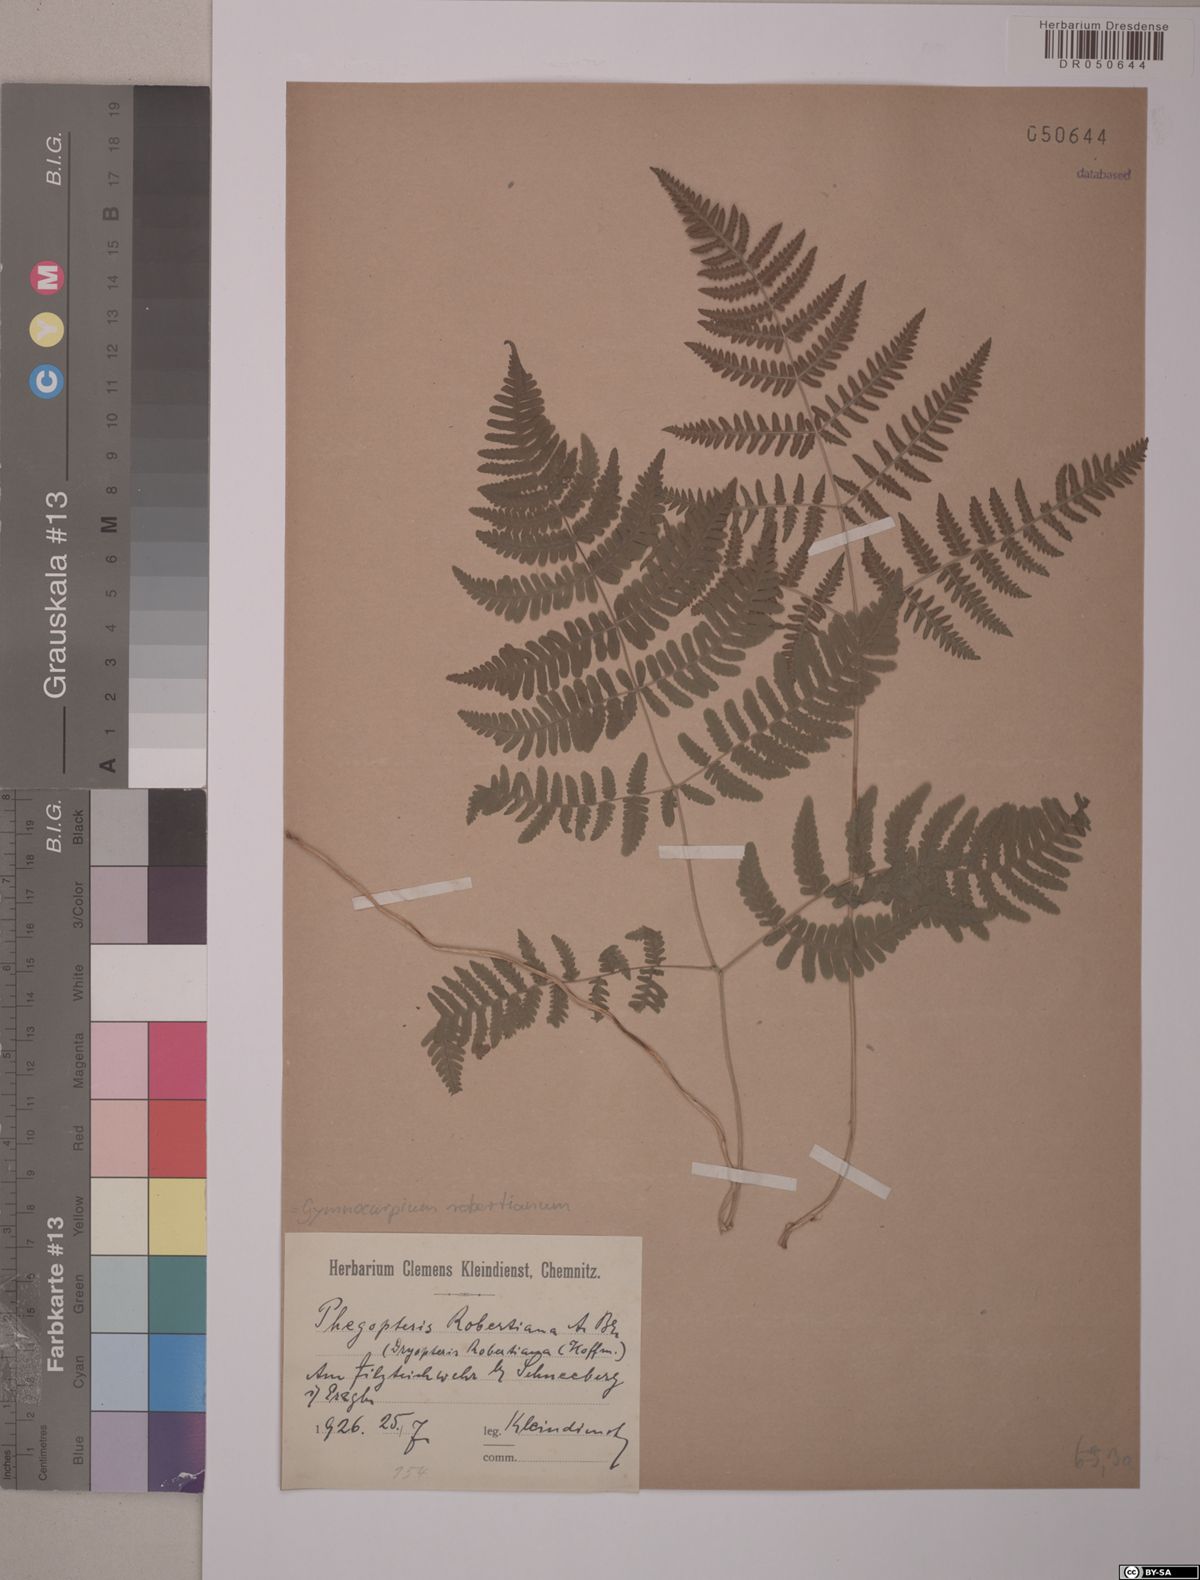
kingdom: Plantae
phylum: Tracheophyta
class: Polypodiopsida
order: Polypodiales
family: Cystopteridaceae
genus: Gymnocarpium
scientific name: Gymnocarpium robertianum
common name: Limestone fern
